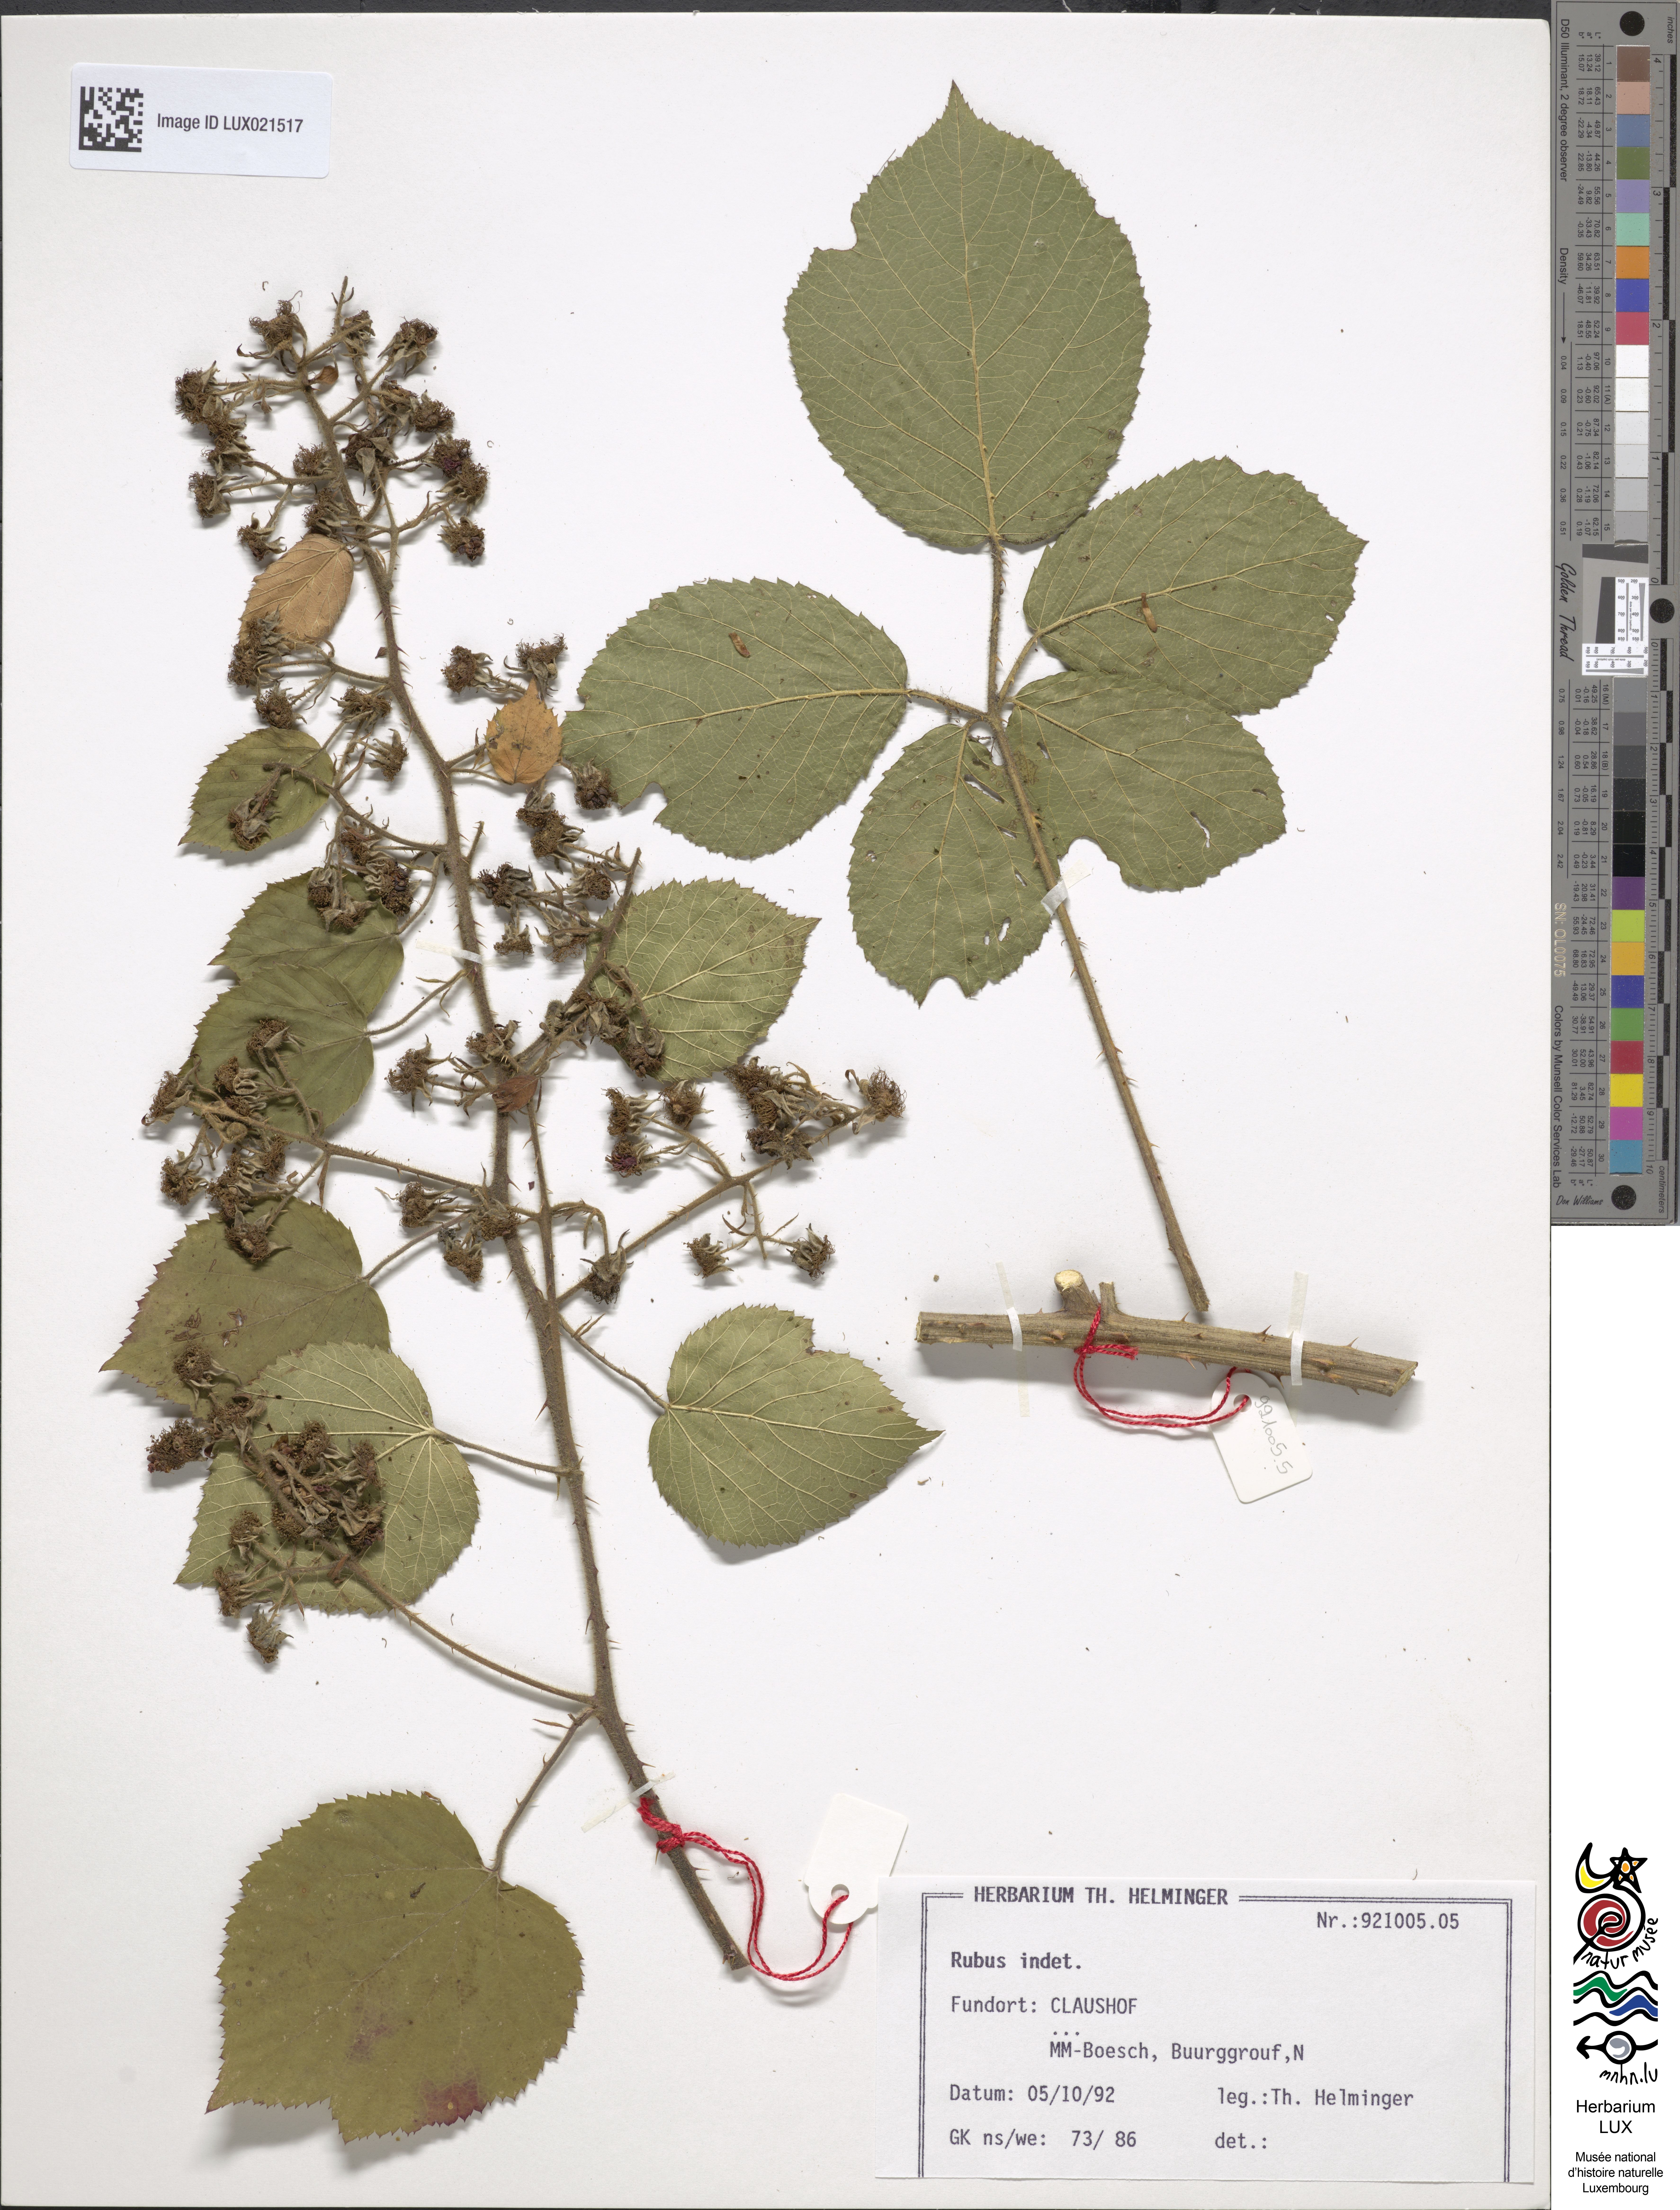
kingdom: Plantae
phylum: Tracheophyta
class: Magnoliopsida
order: Rosales
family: Rosaceae
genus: Rubus
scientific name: Rubus
